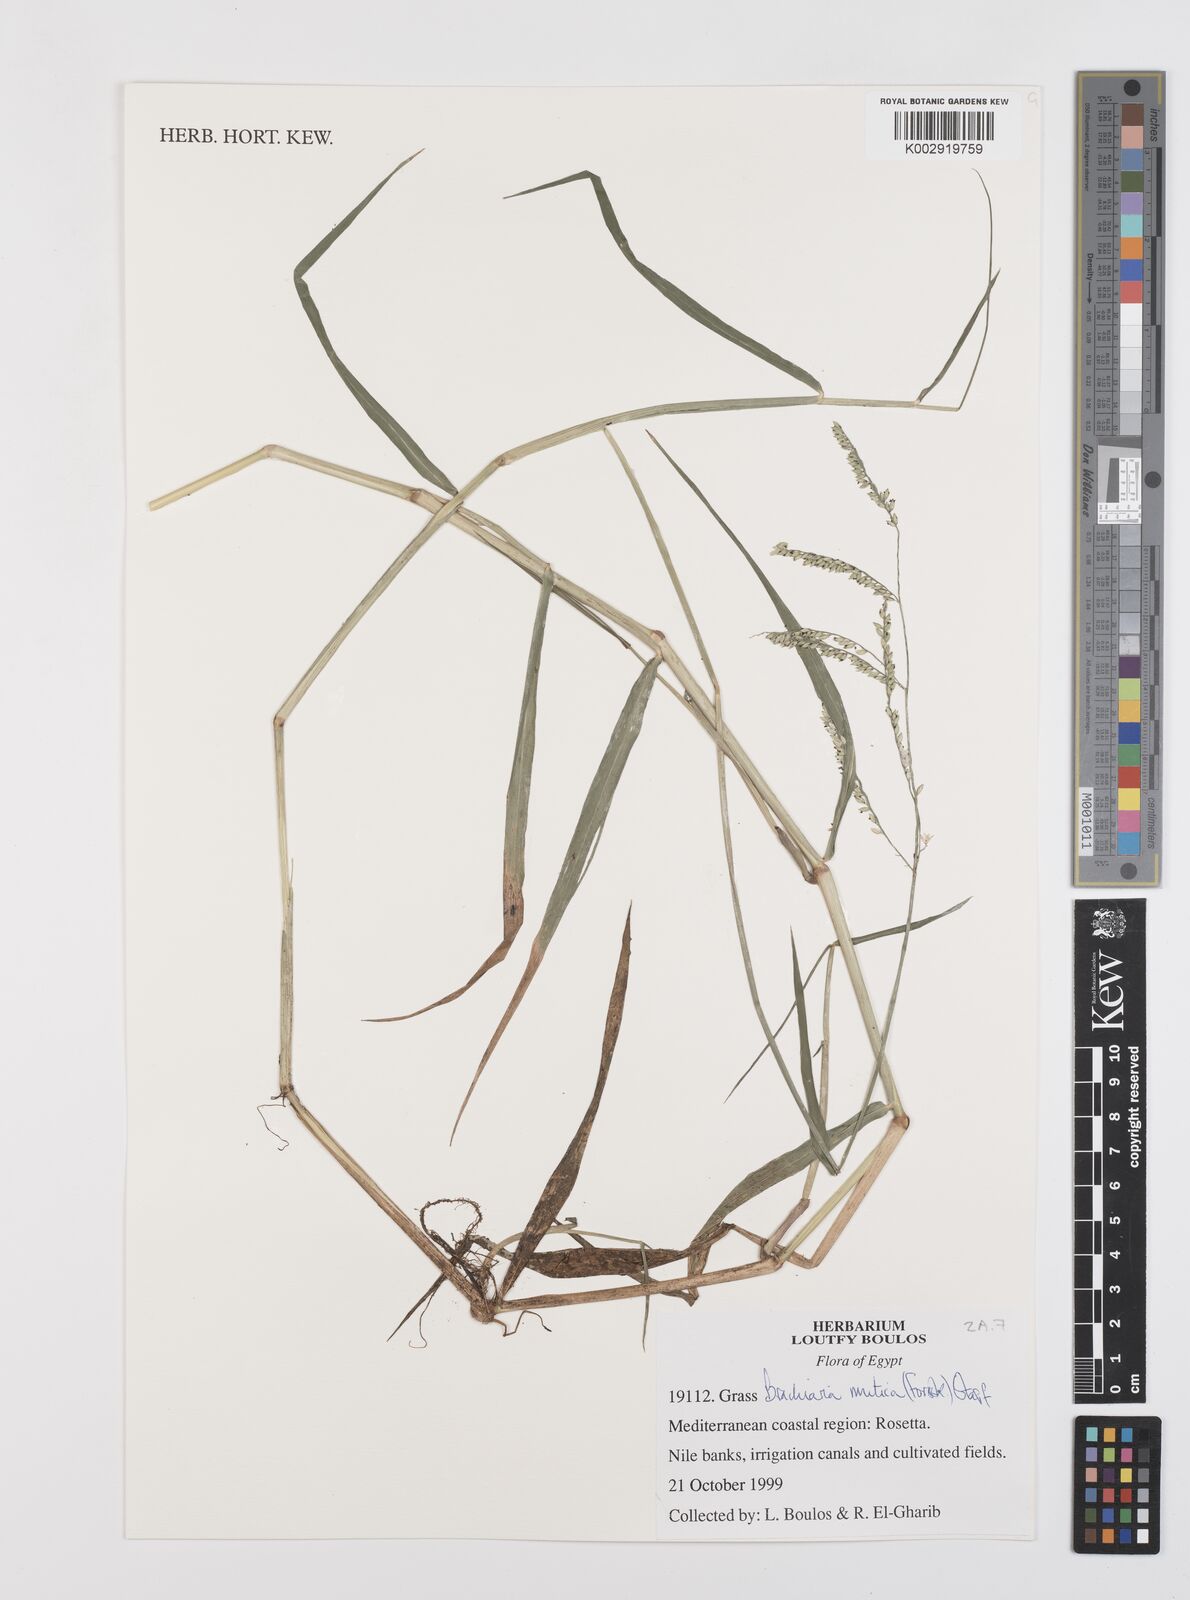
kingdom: Plantae
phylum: Tracheophyta
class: Liliopsida
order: Poales
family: Poaceae
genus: Urochloa
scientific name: Urochloa mutica
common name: Para grass
